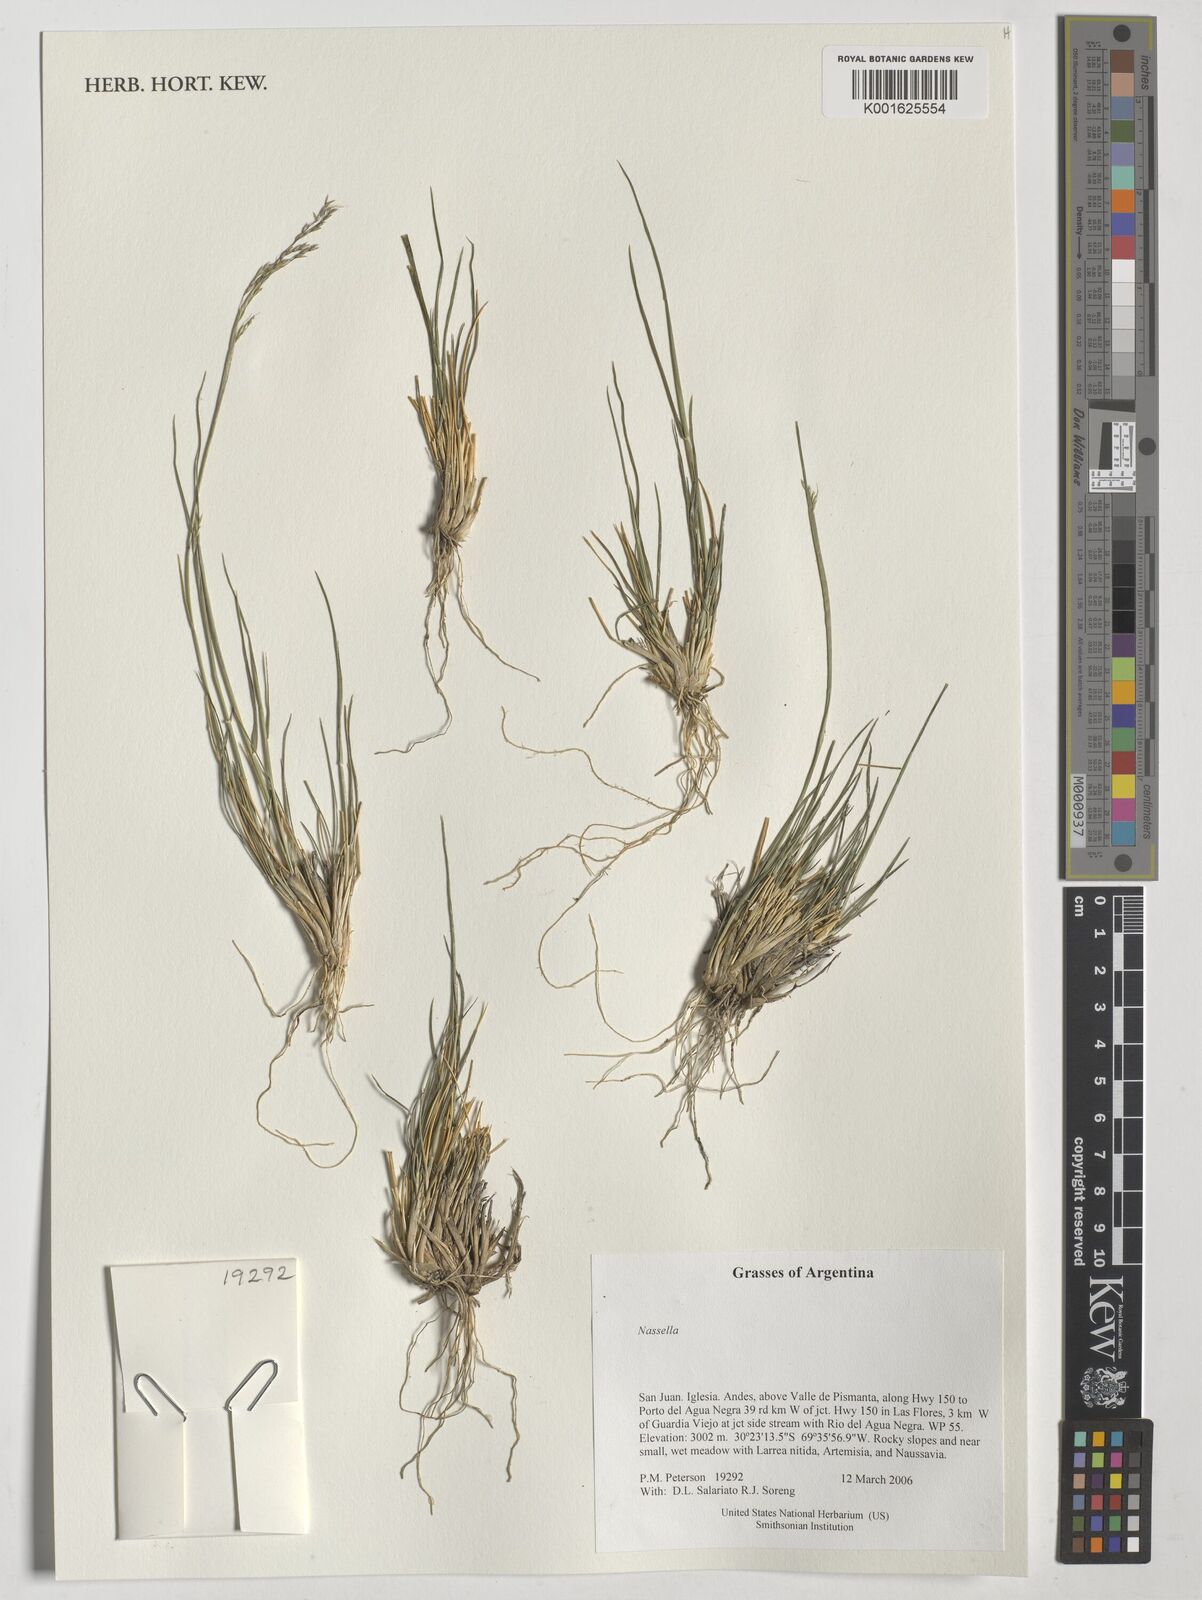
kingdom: Plantae
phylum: Tracheophyta
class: Liliopsida
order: Poales
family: Poaceae
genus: Nassella
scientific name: Nassella
